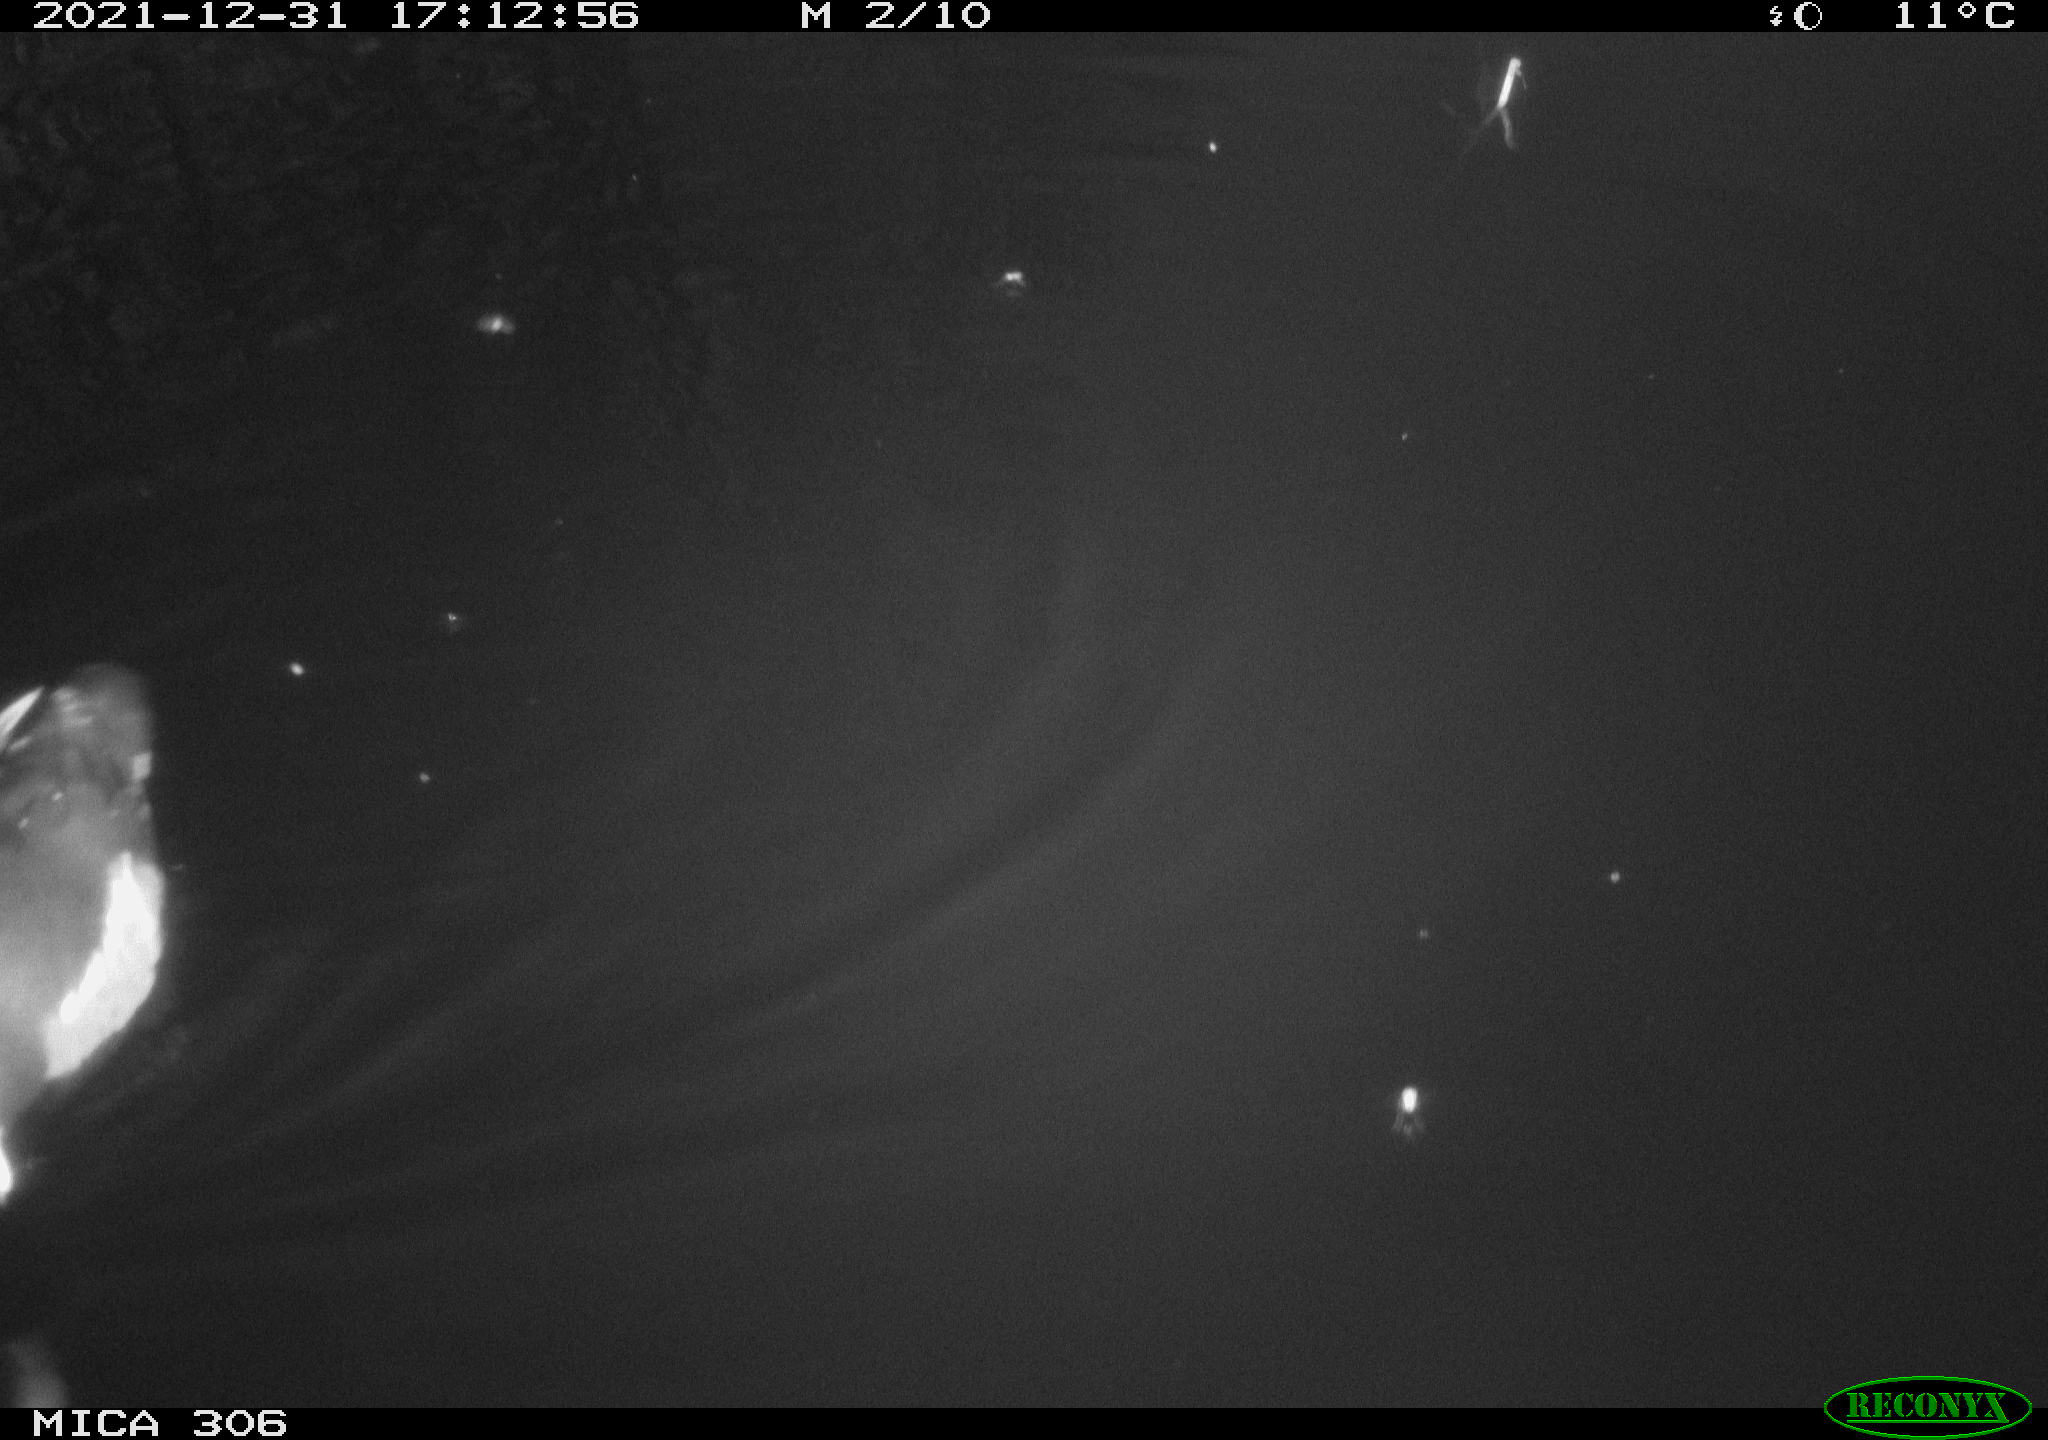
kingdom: Animalia
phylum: Chordata
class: Aves
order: Gruiformes
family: Rallidae
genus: Gallinula
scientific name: Gallinula chloropus
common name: Common moorhen
